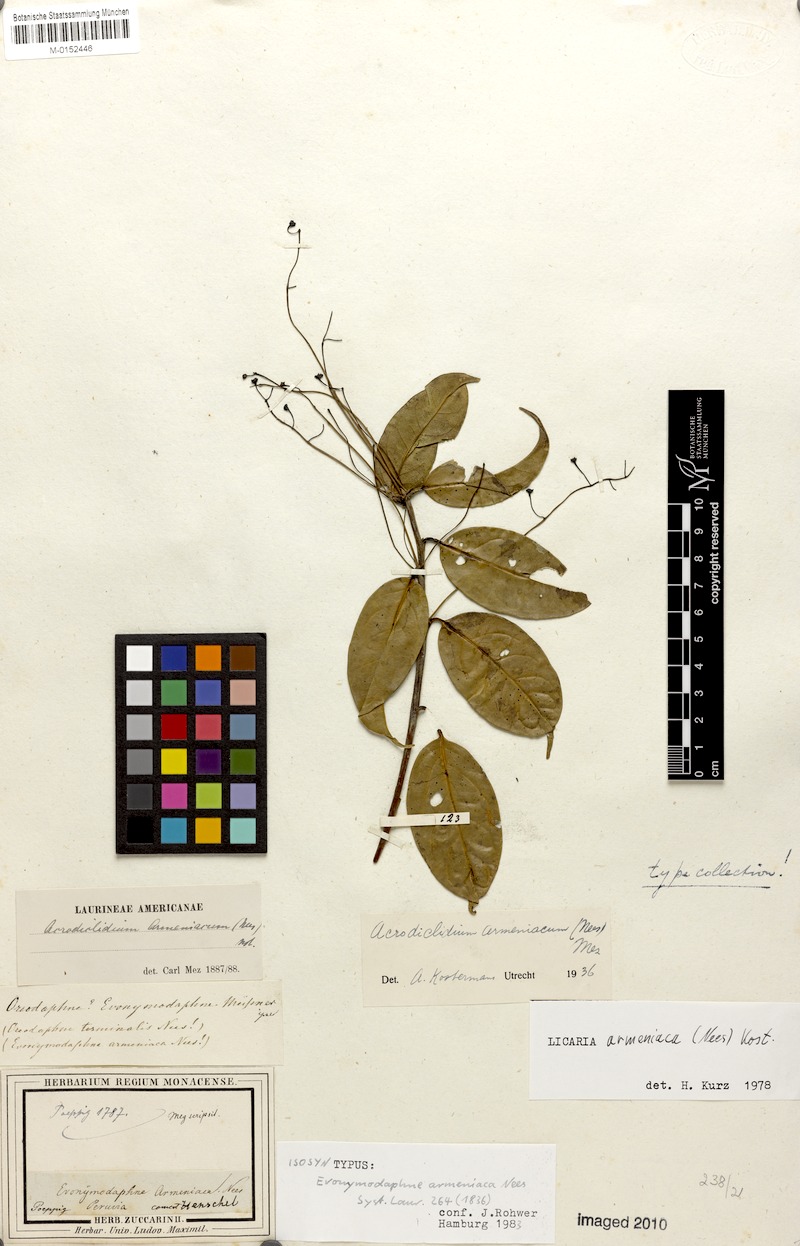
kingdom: Plantae
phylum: Tracheophyta
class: Magnoliopsida
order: Laurales
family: Lauraceae
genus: Licaria
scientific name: Licaria armeniaca
